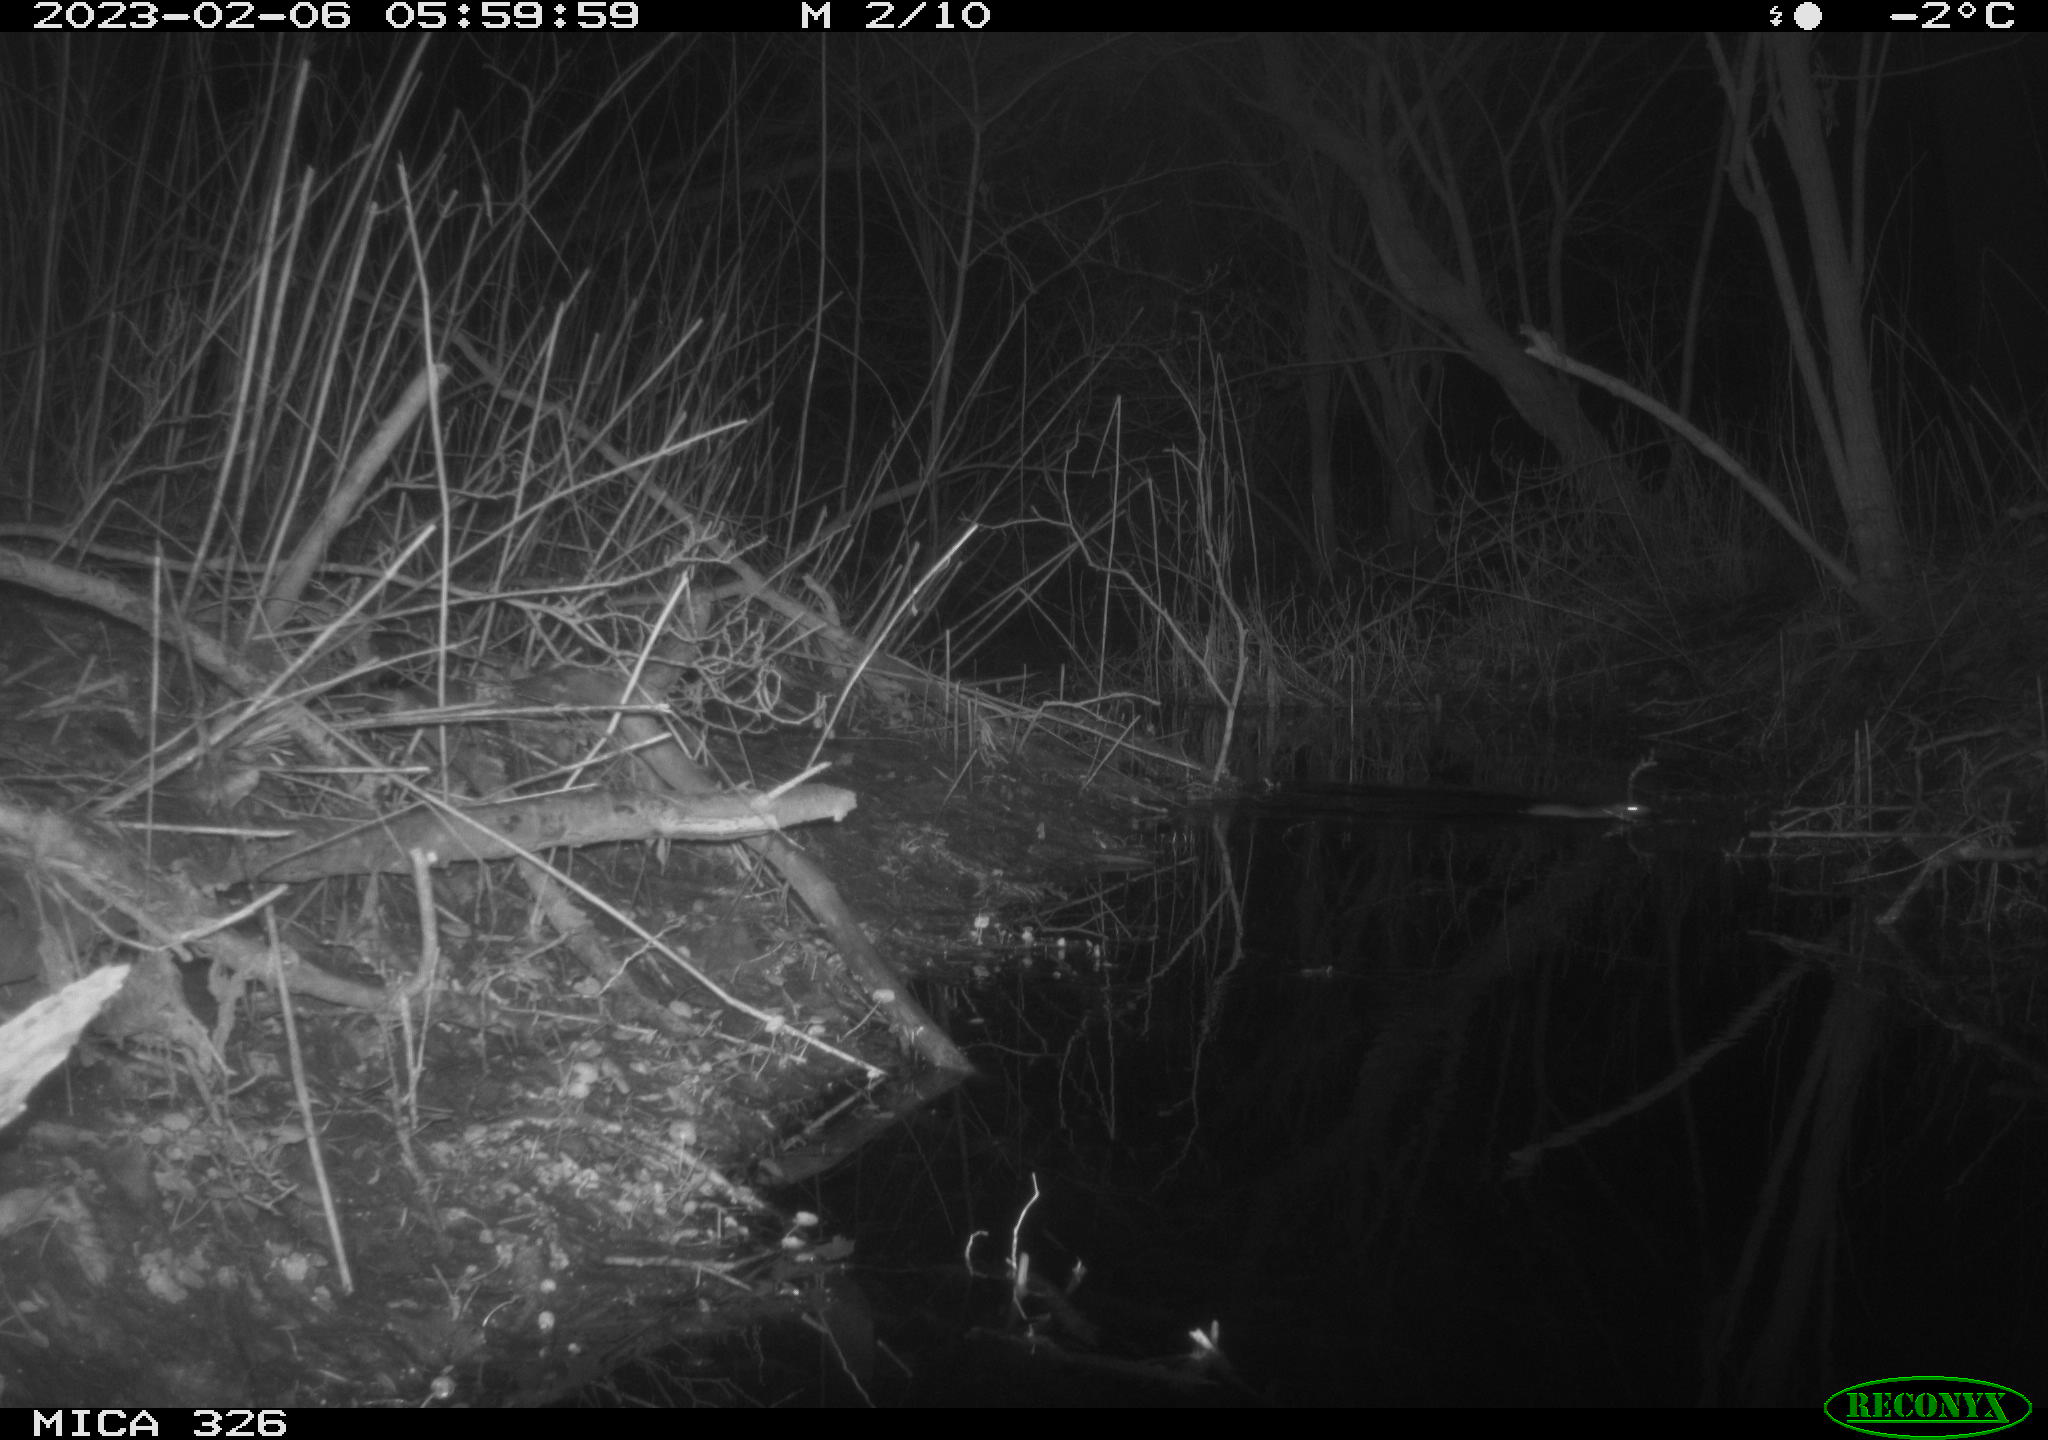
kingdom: Animalia
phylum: Chordata
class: Mammalia
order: Rodentia
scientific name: Rodentia
